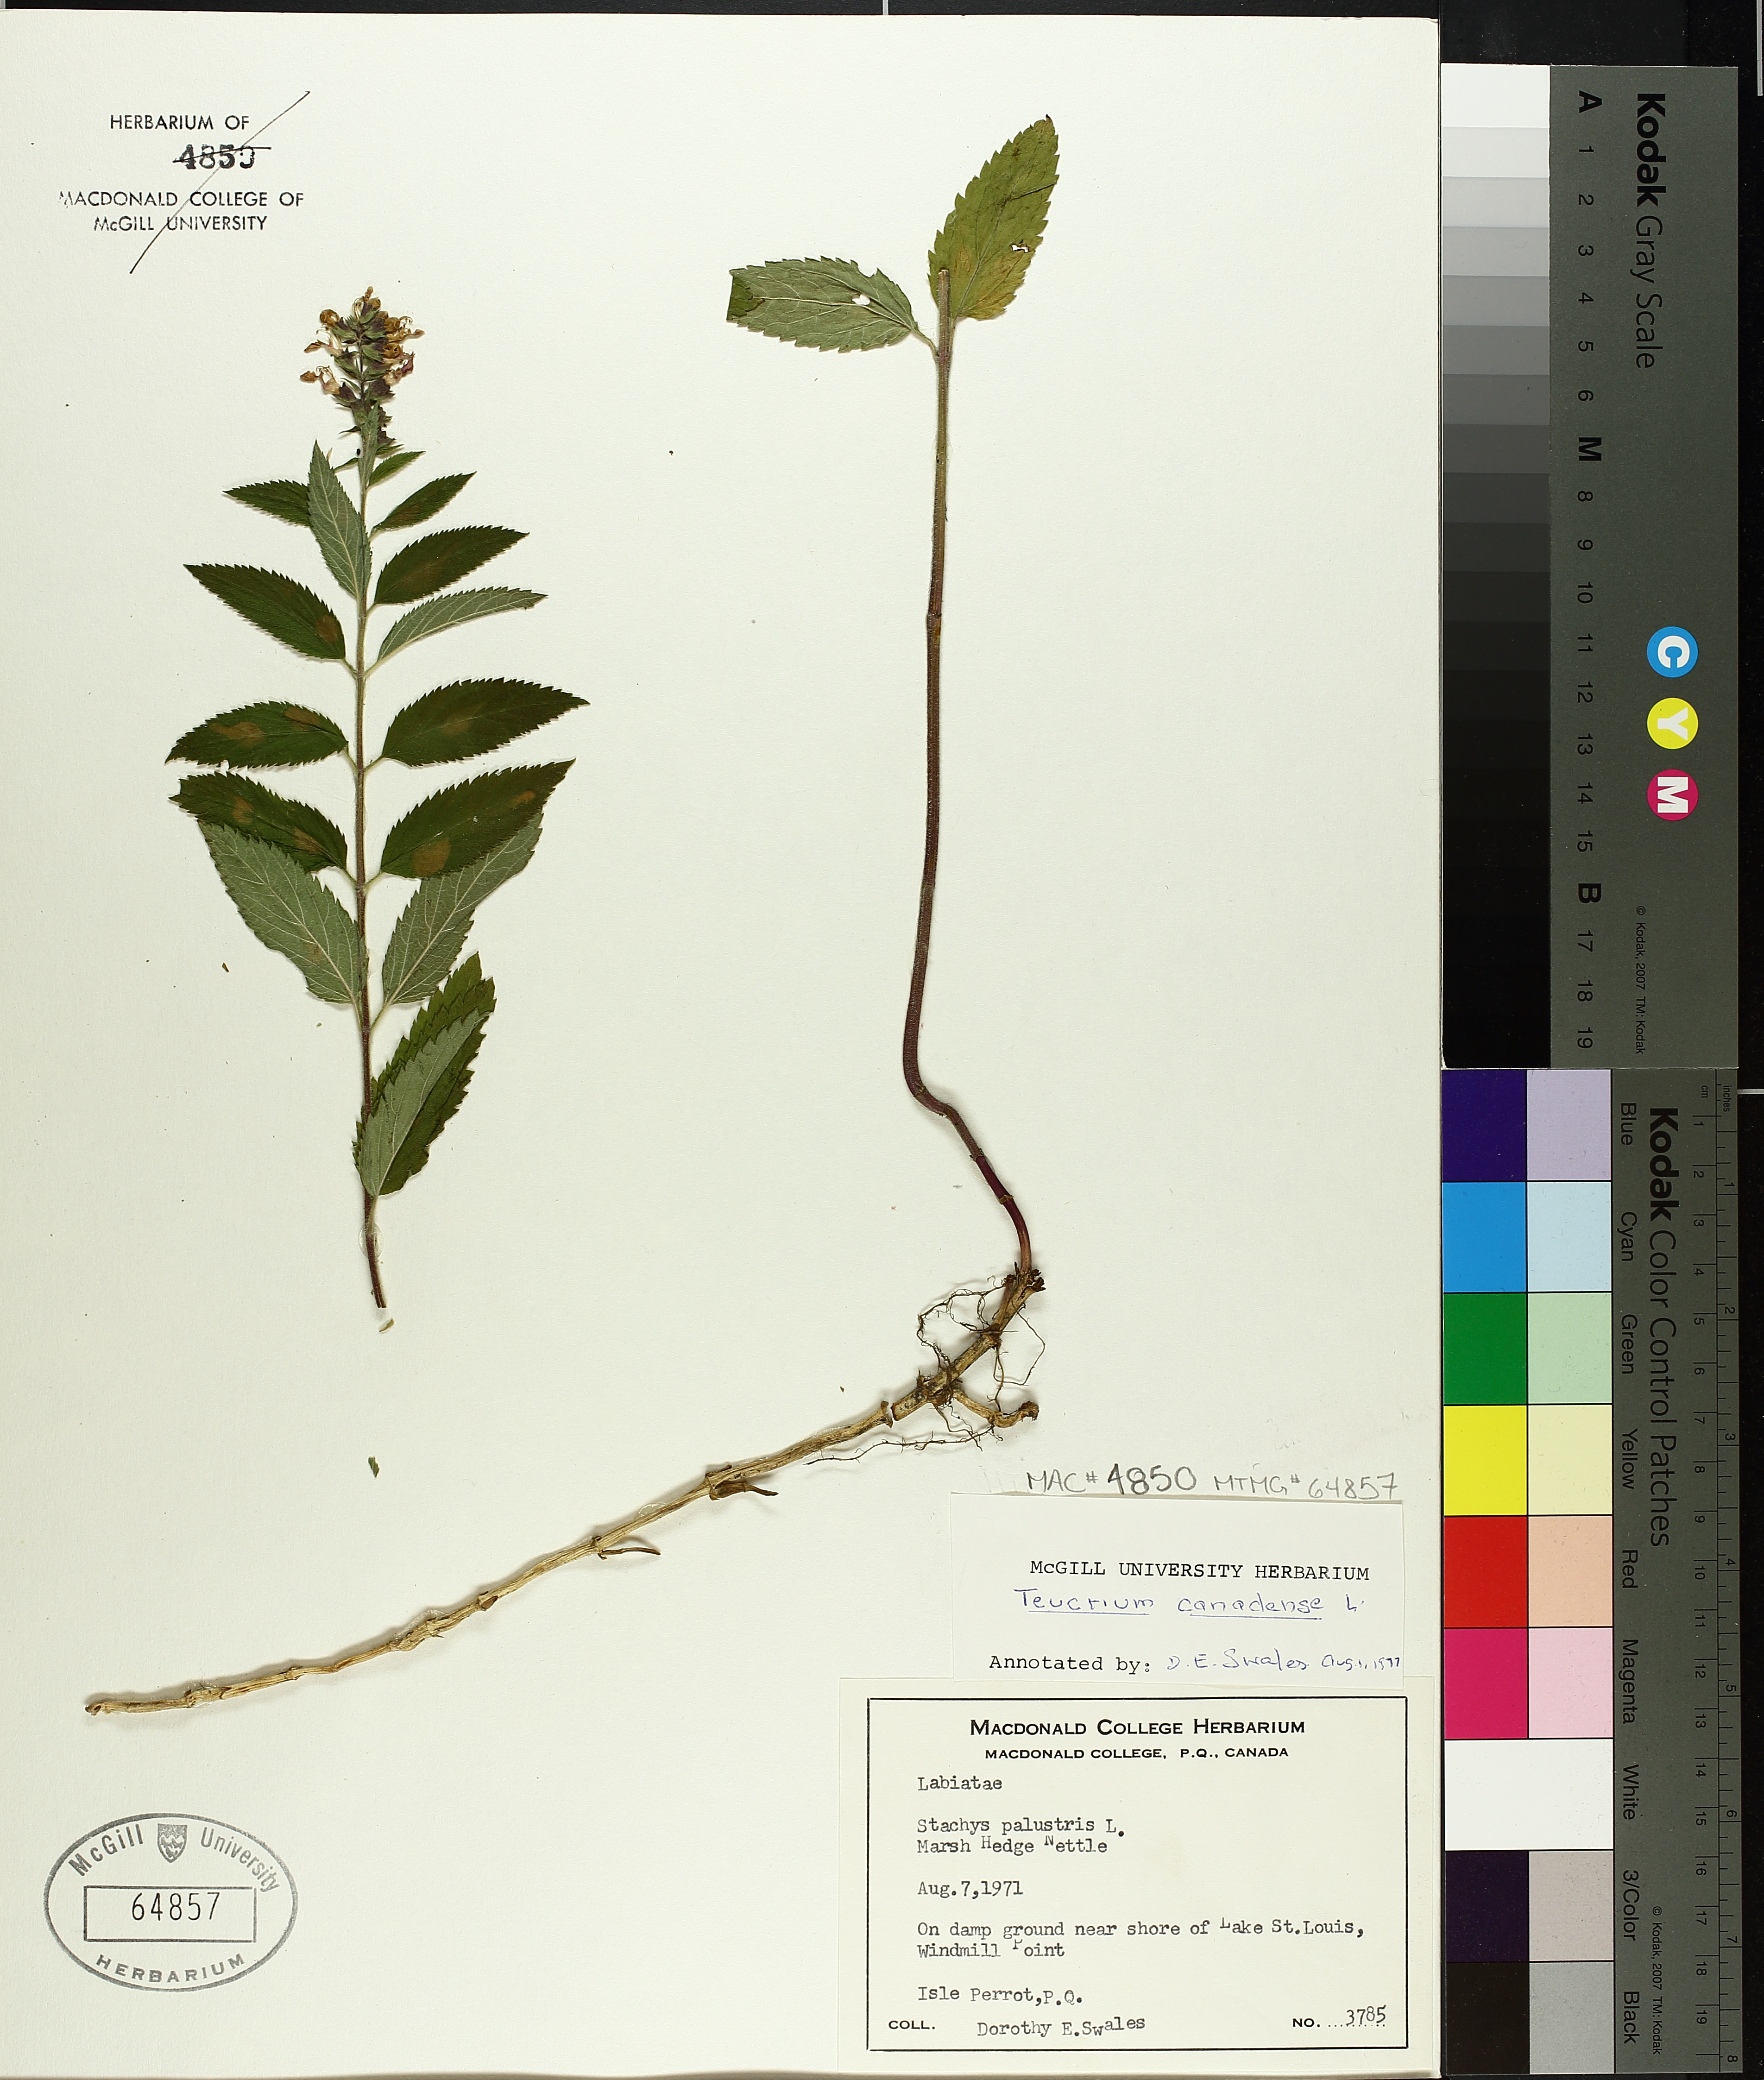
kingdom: Plantae
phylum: Tracheophyta
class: Magnoliopsida
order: Lamiales
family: Lamiaceae
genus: Teucrium
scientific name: Teucrium canadense
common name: American germander
